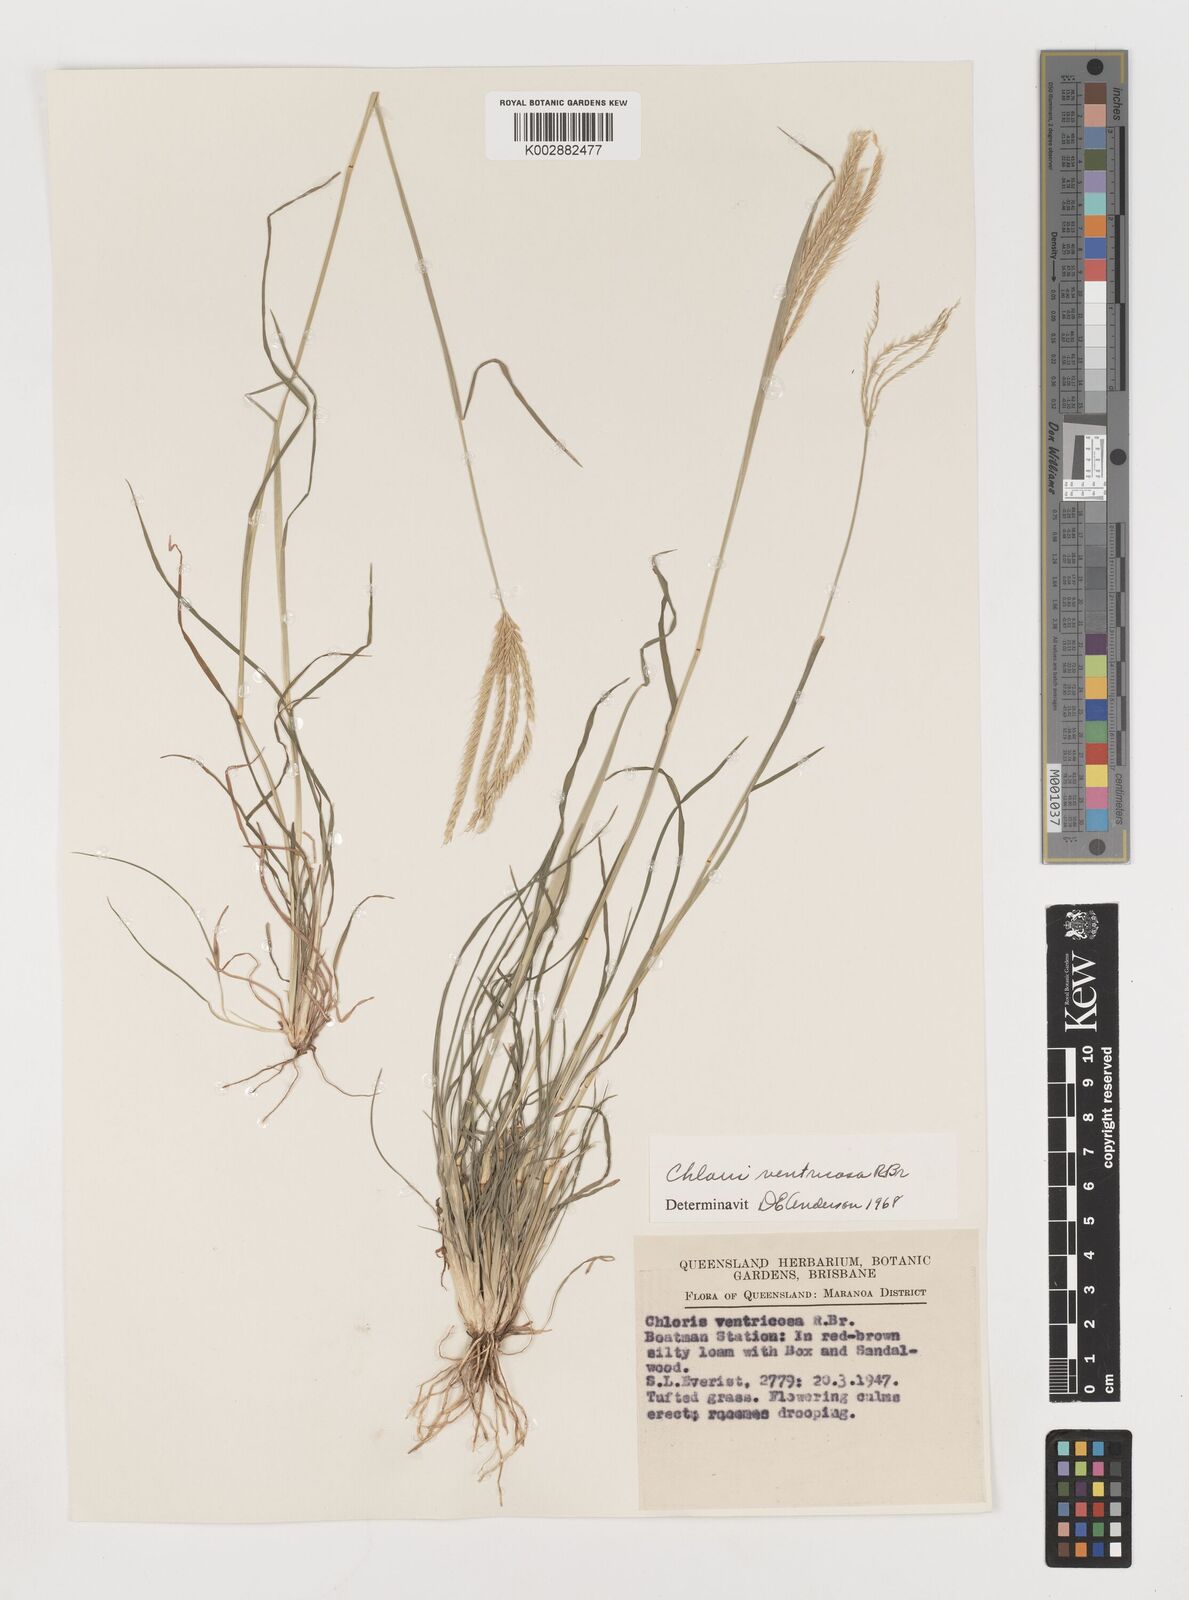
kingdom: Plantae
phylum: Tracheophyta
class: Liliopsida
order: Poales
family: Poaceae
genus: Chloris
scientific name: Chloris ventricosa
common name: Australian windmill grass
